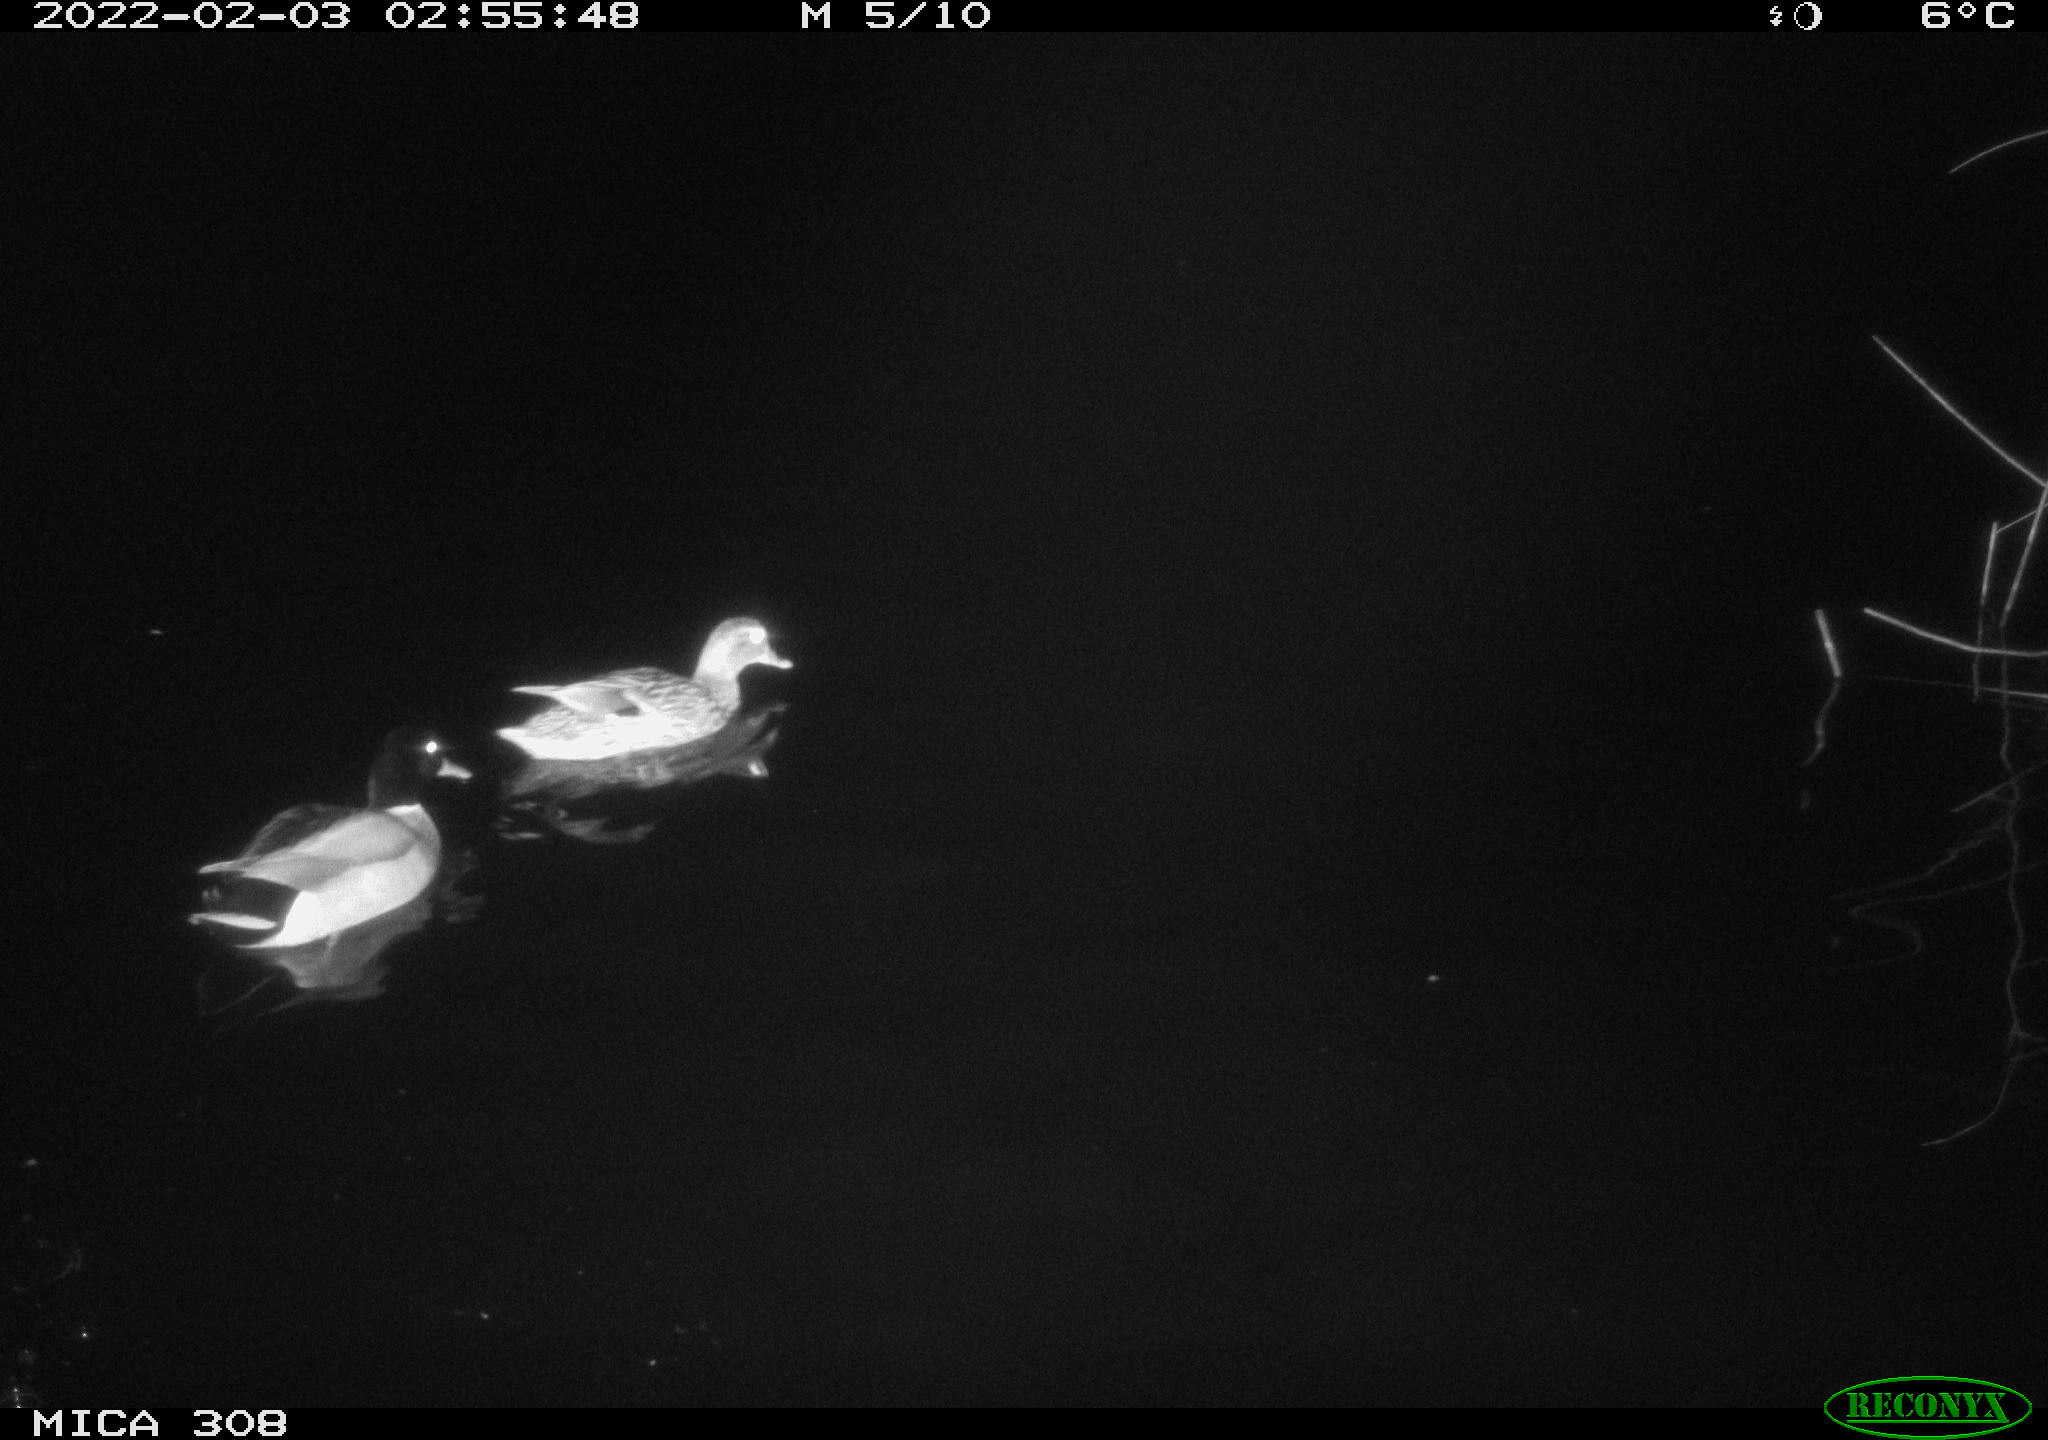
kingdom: Animalia
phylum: Chordata
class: Aves
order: Anseriformes
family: Anatidae
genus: Anas
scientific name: Anas
